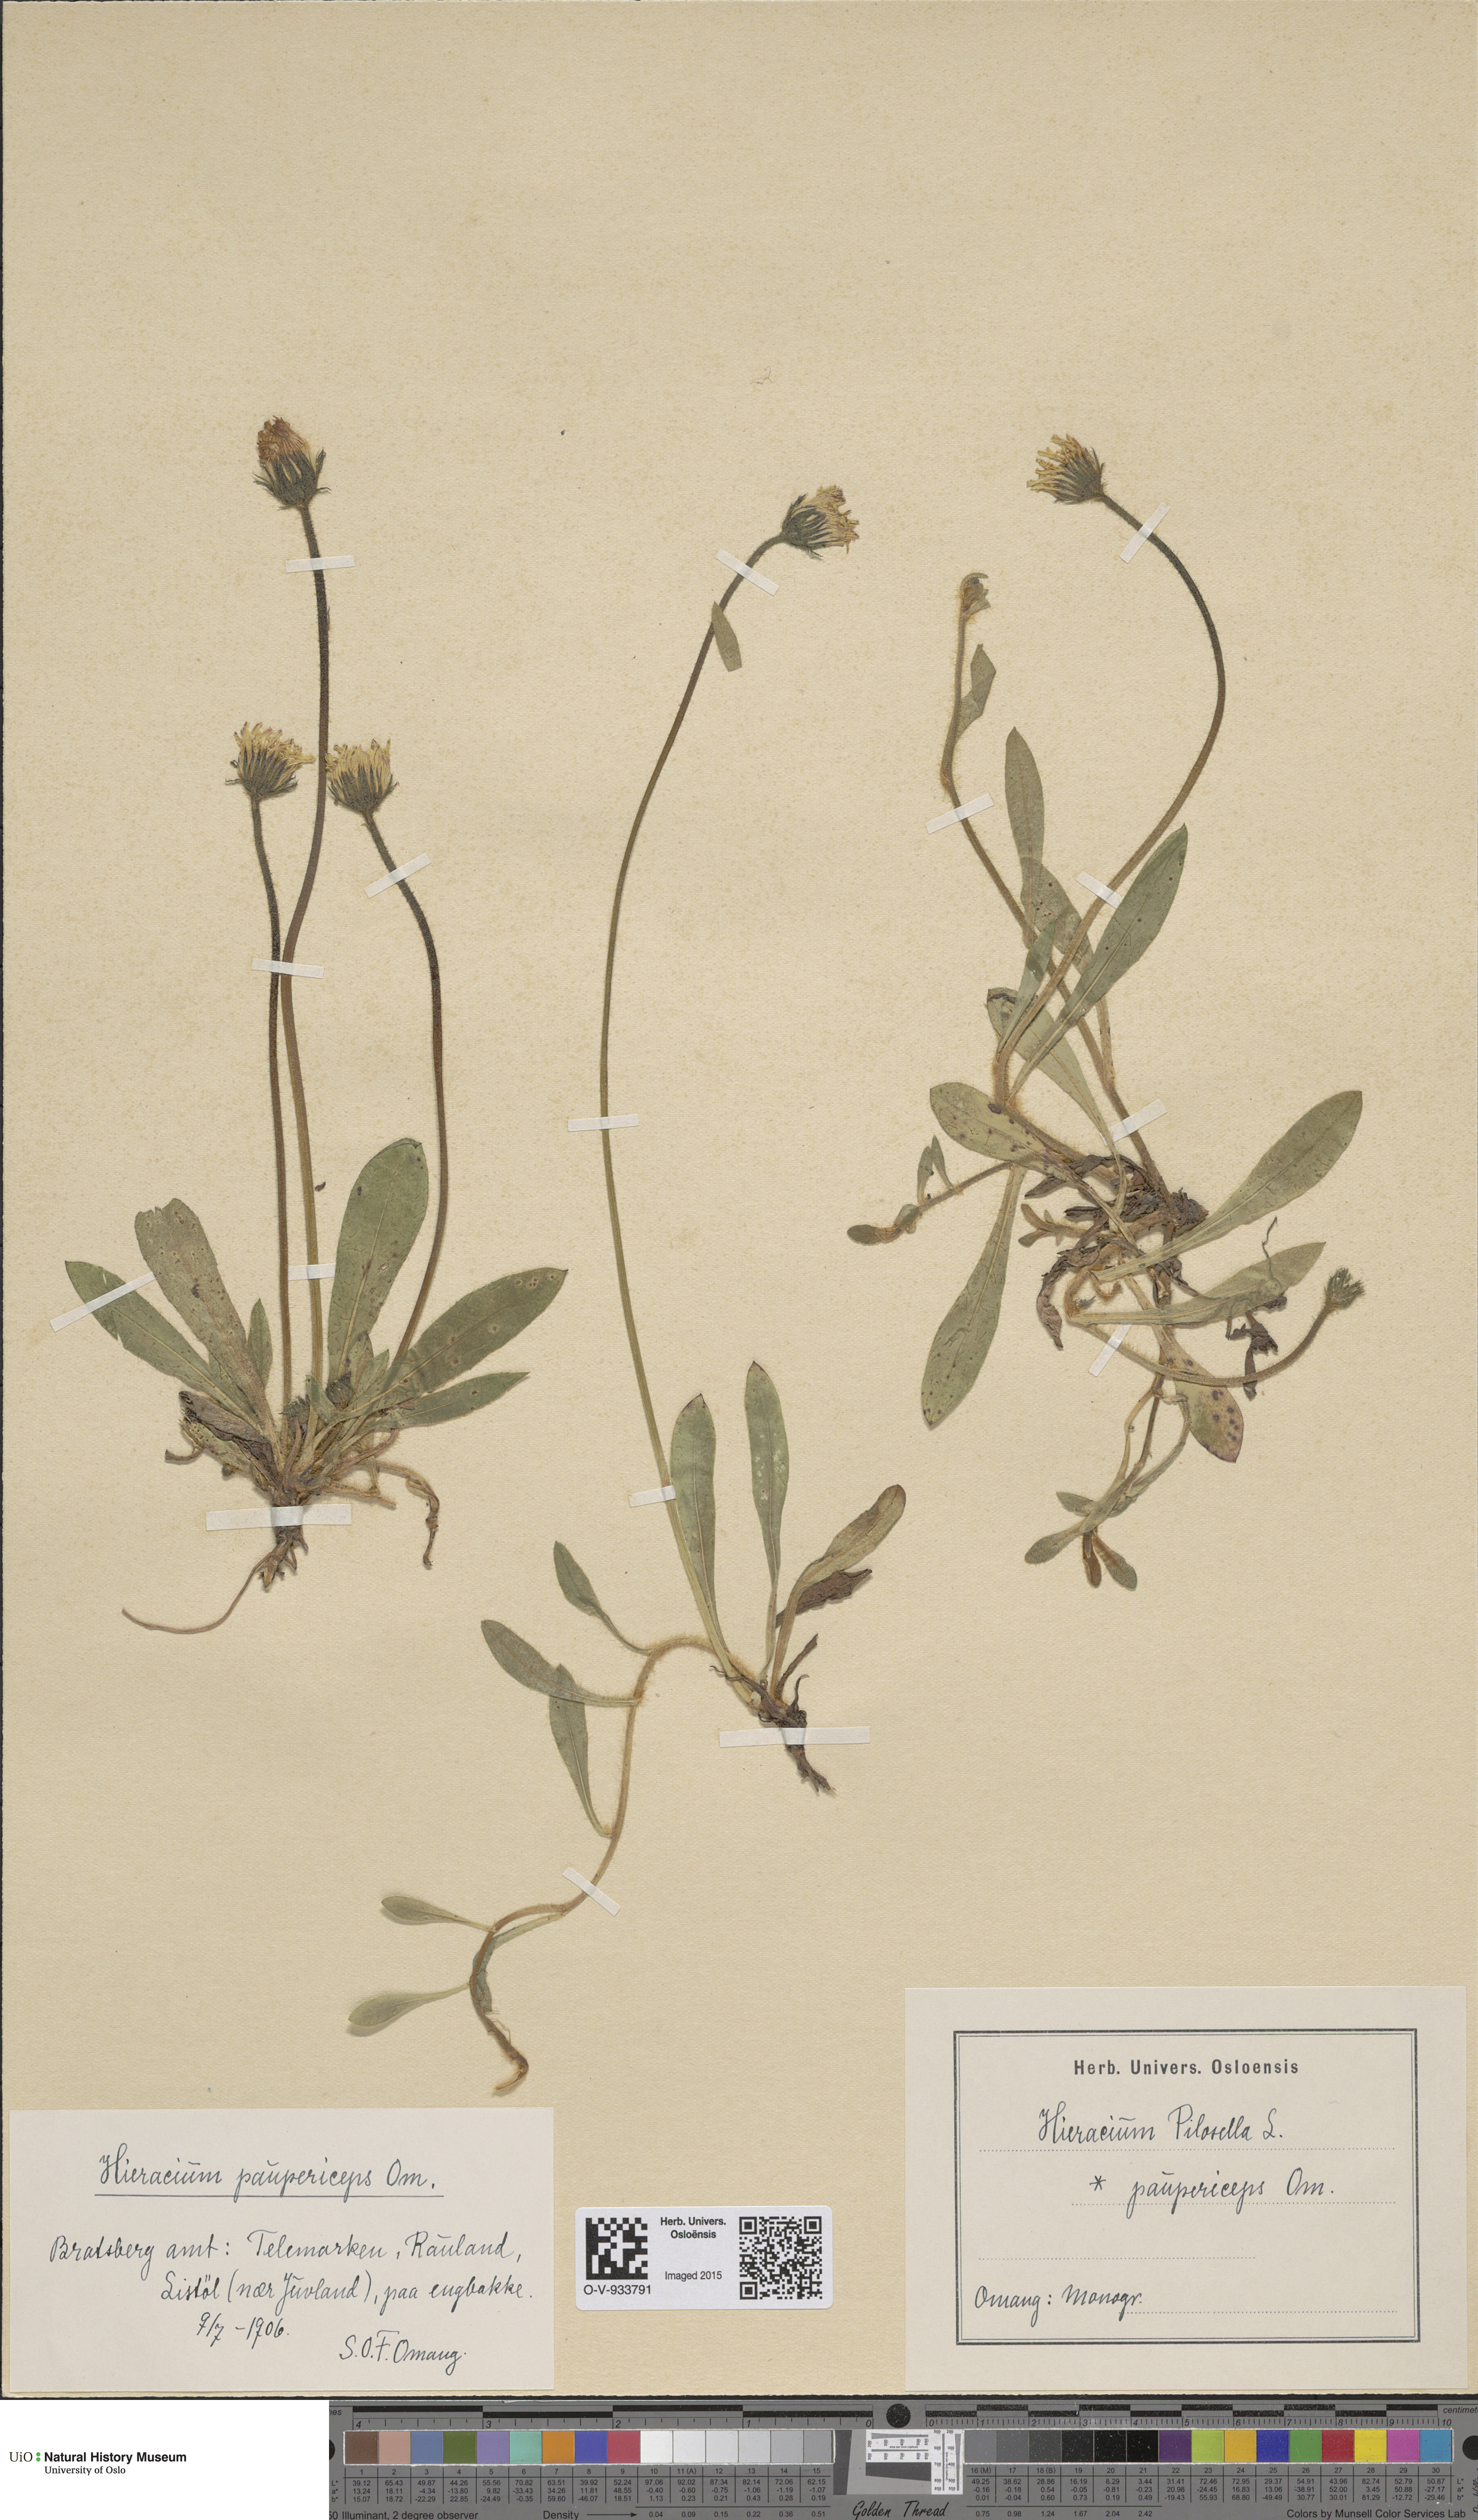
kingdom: Plantae
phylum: Tracheophyta
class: Magnoliopsida
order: Asterales
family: Asteraceae
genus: Pilosella
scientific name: Pilosella officinarum
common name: Mouse-ear hawkweed
